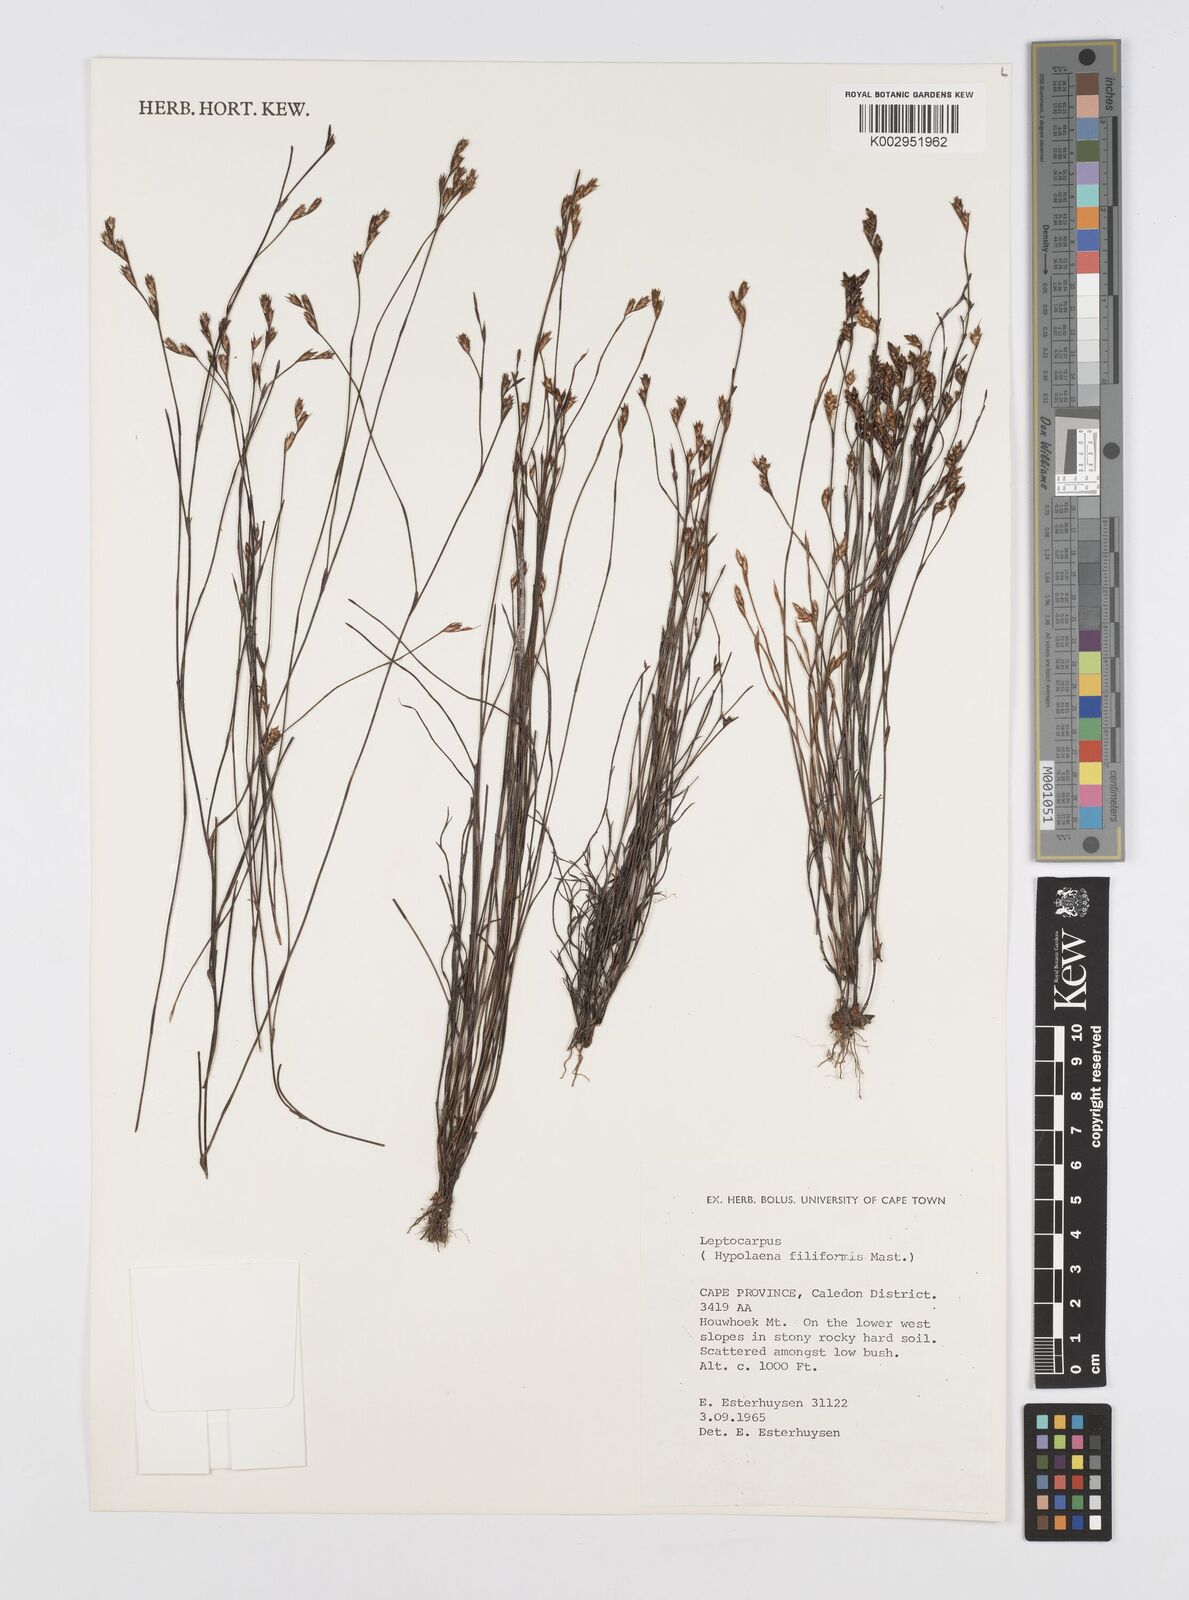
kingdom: Plantae
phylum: Tracheophyta
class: Liliopsida
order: Poales
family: Restionaceae
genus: Restio
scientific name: Restio filiformis
